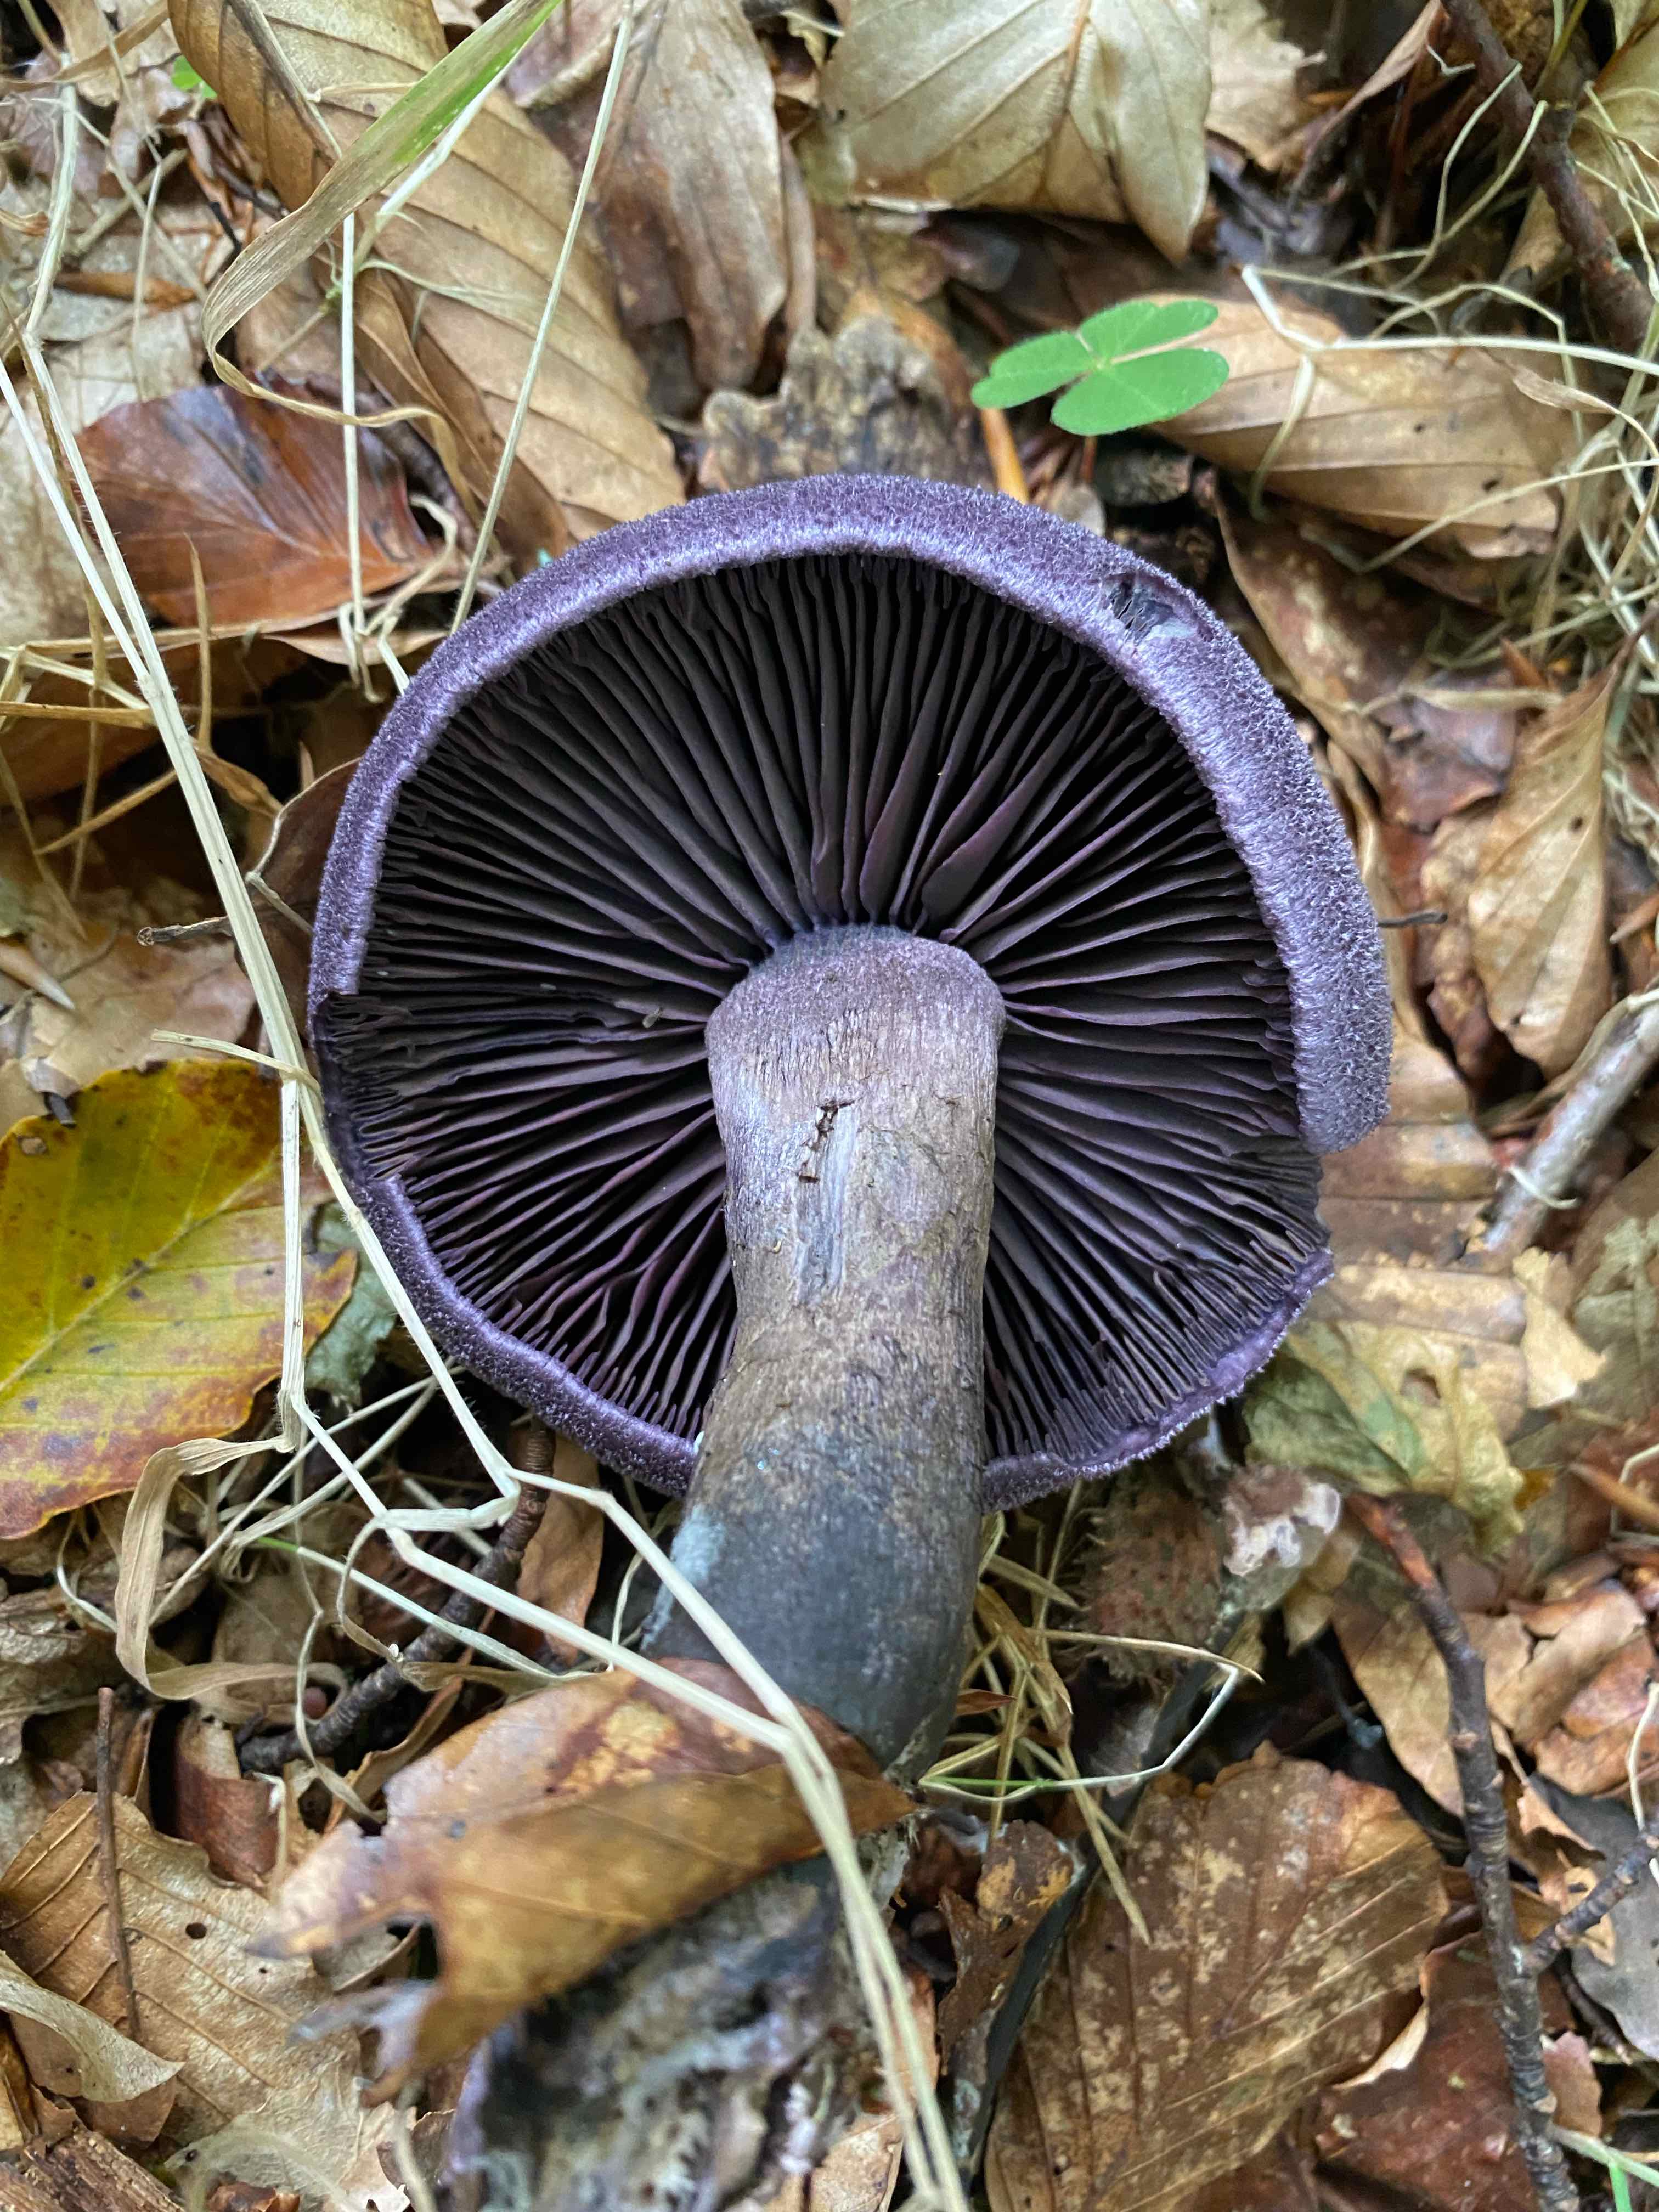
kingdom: Fungi
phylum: Basidiomycota
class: Agaricomycetes
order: Agaricales
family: Cortinariaceae
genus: Cortinarius
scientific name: Cortinarius violaceus
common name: mørkviolet slørhat
